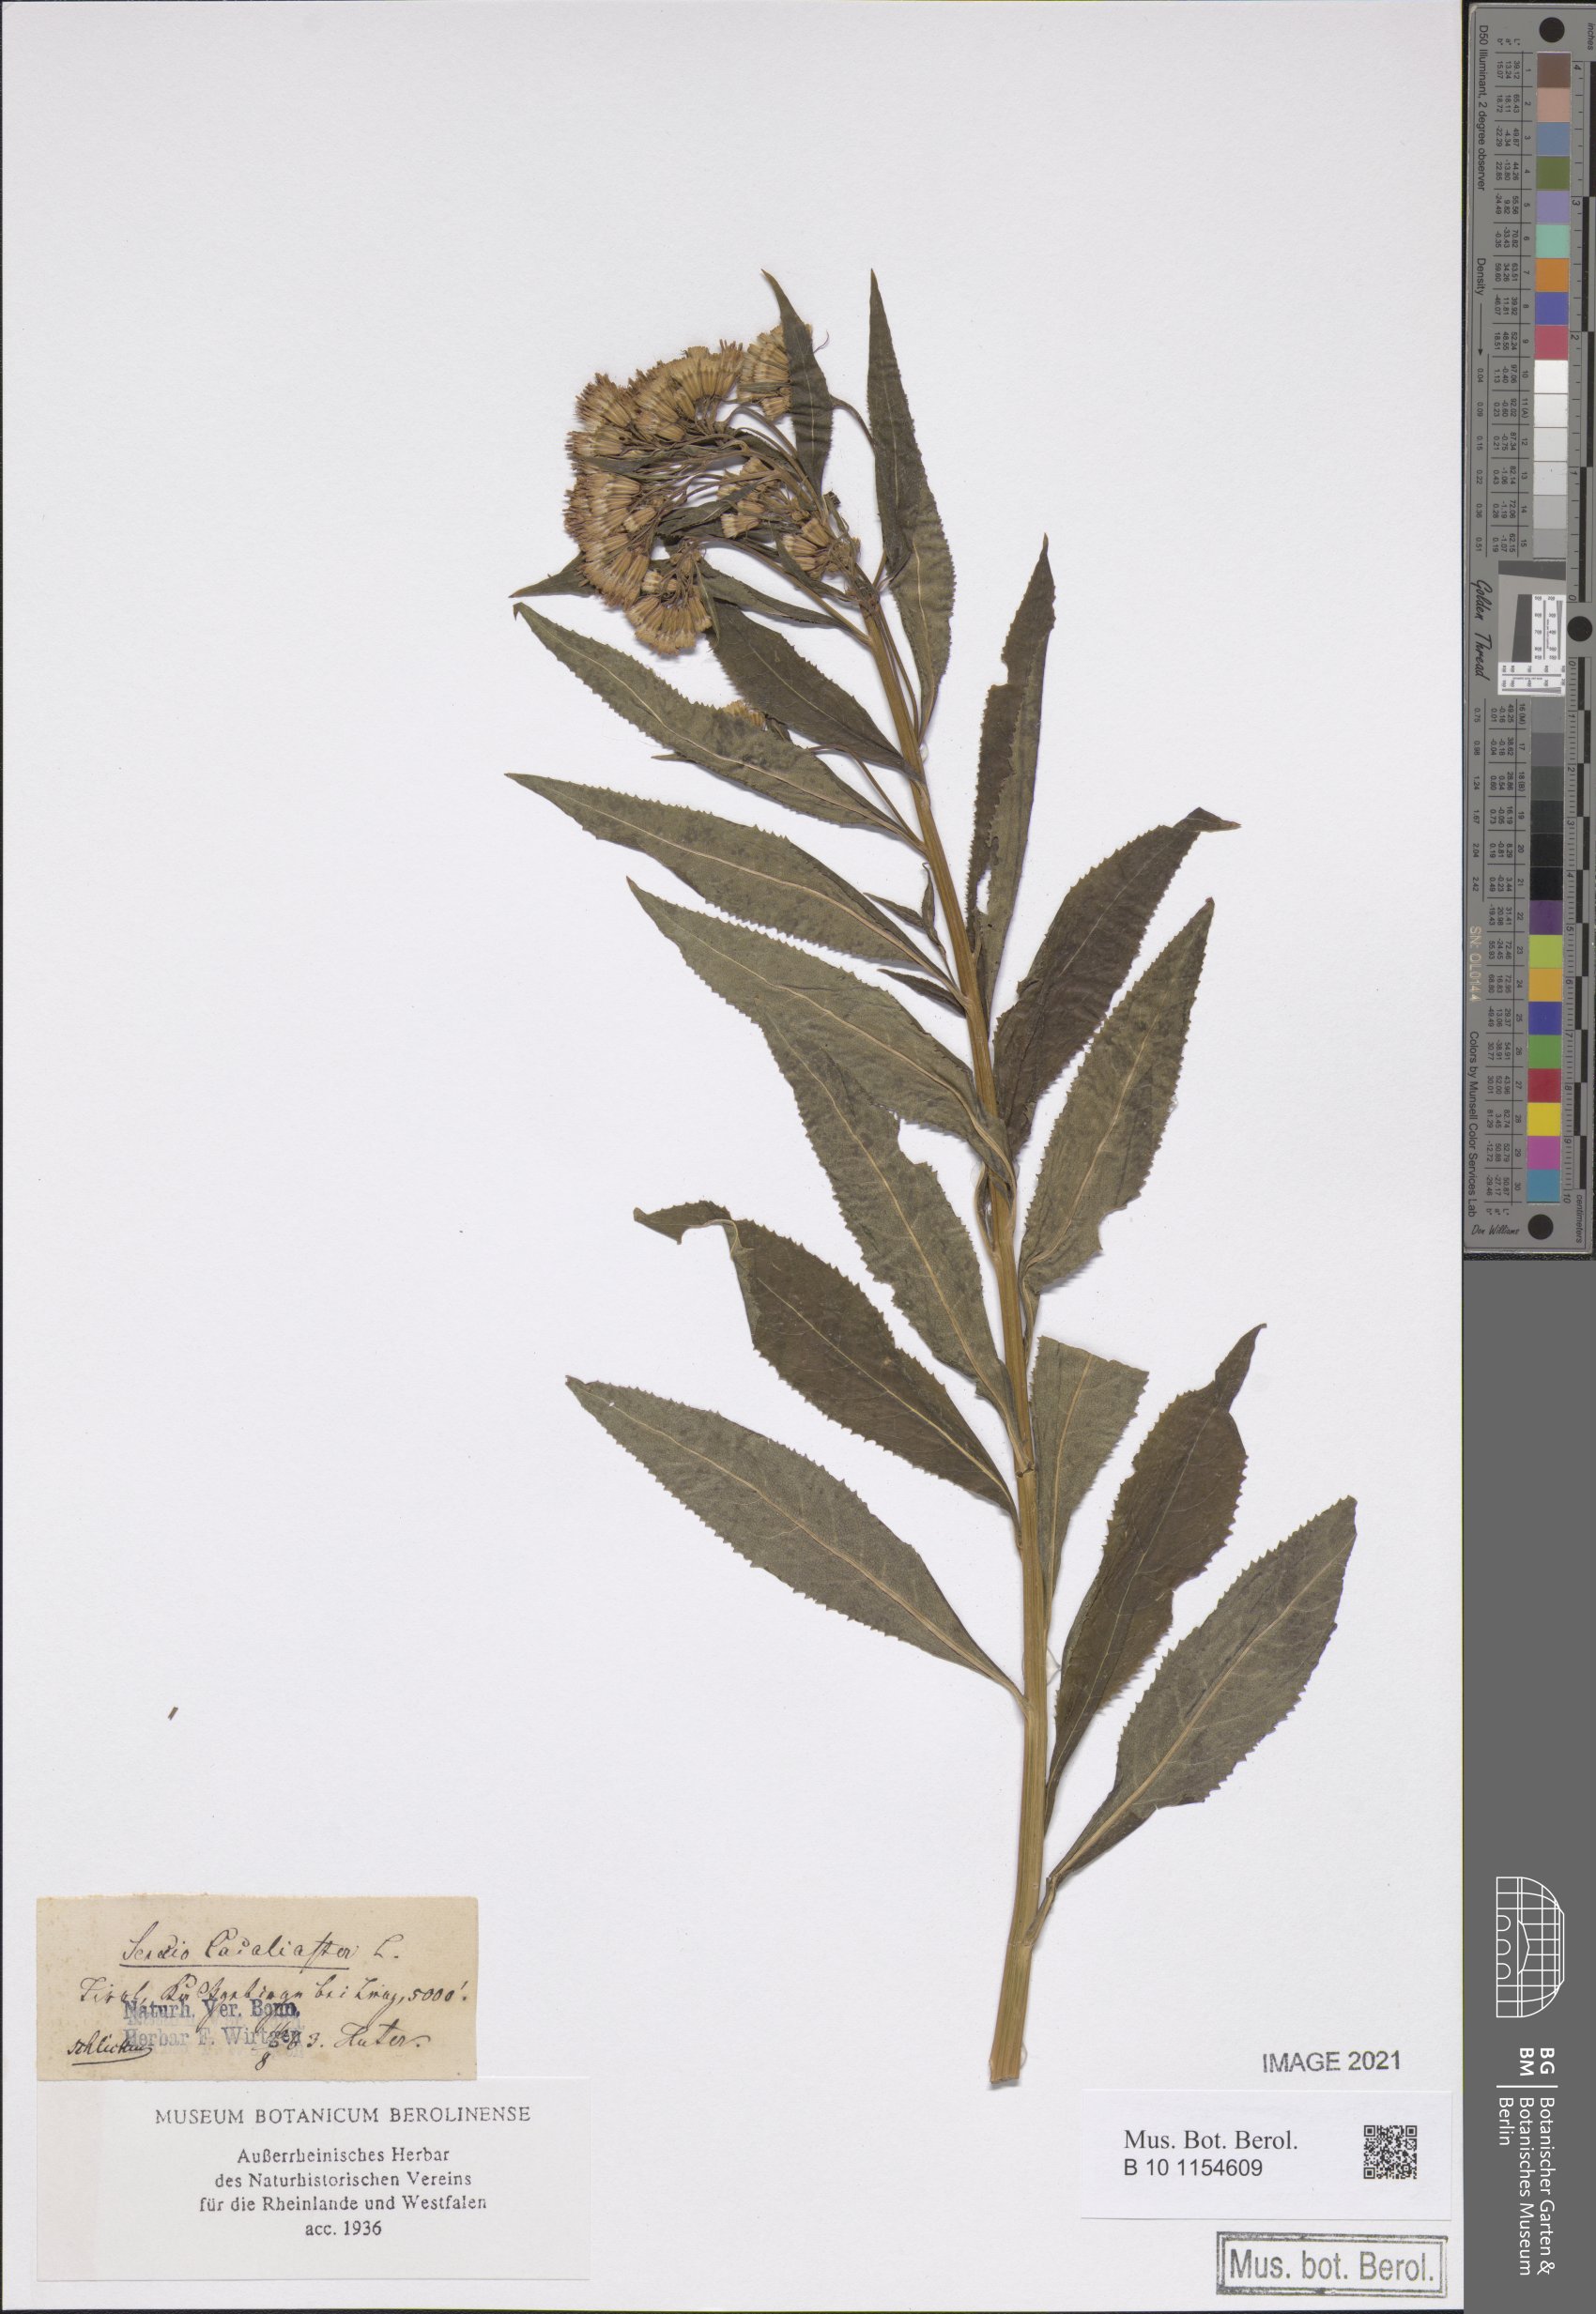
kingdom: Plantae
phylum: Tracheophyta
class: Magnoliopsida
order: Asterales
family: Asteraceae
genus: Senecio
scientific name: Senecio cacaliaster
